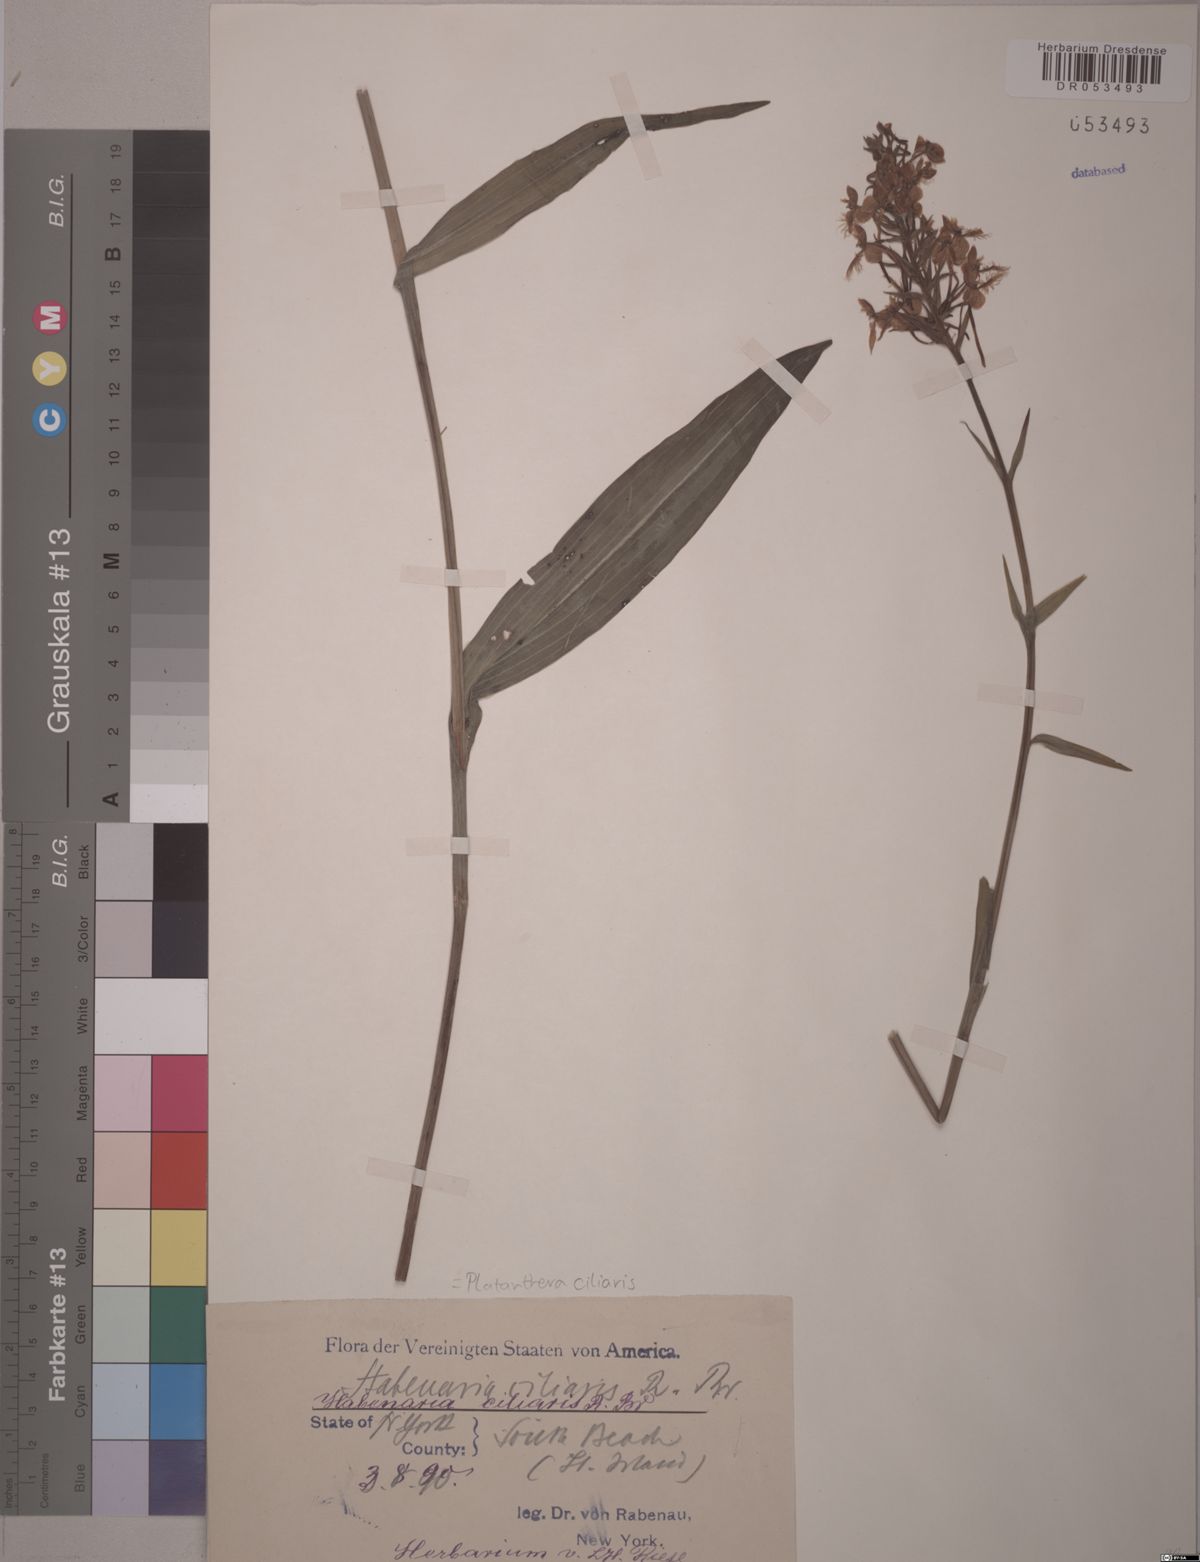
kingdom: Plantae
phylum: Tracheophyta
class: Liliopsida
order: Asparagales
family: Orchidaceae
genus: Platanthera
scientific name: Platanthera ciliaris
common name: Yellow fringed orchid
